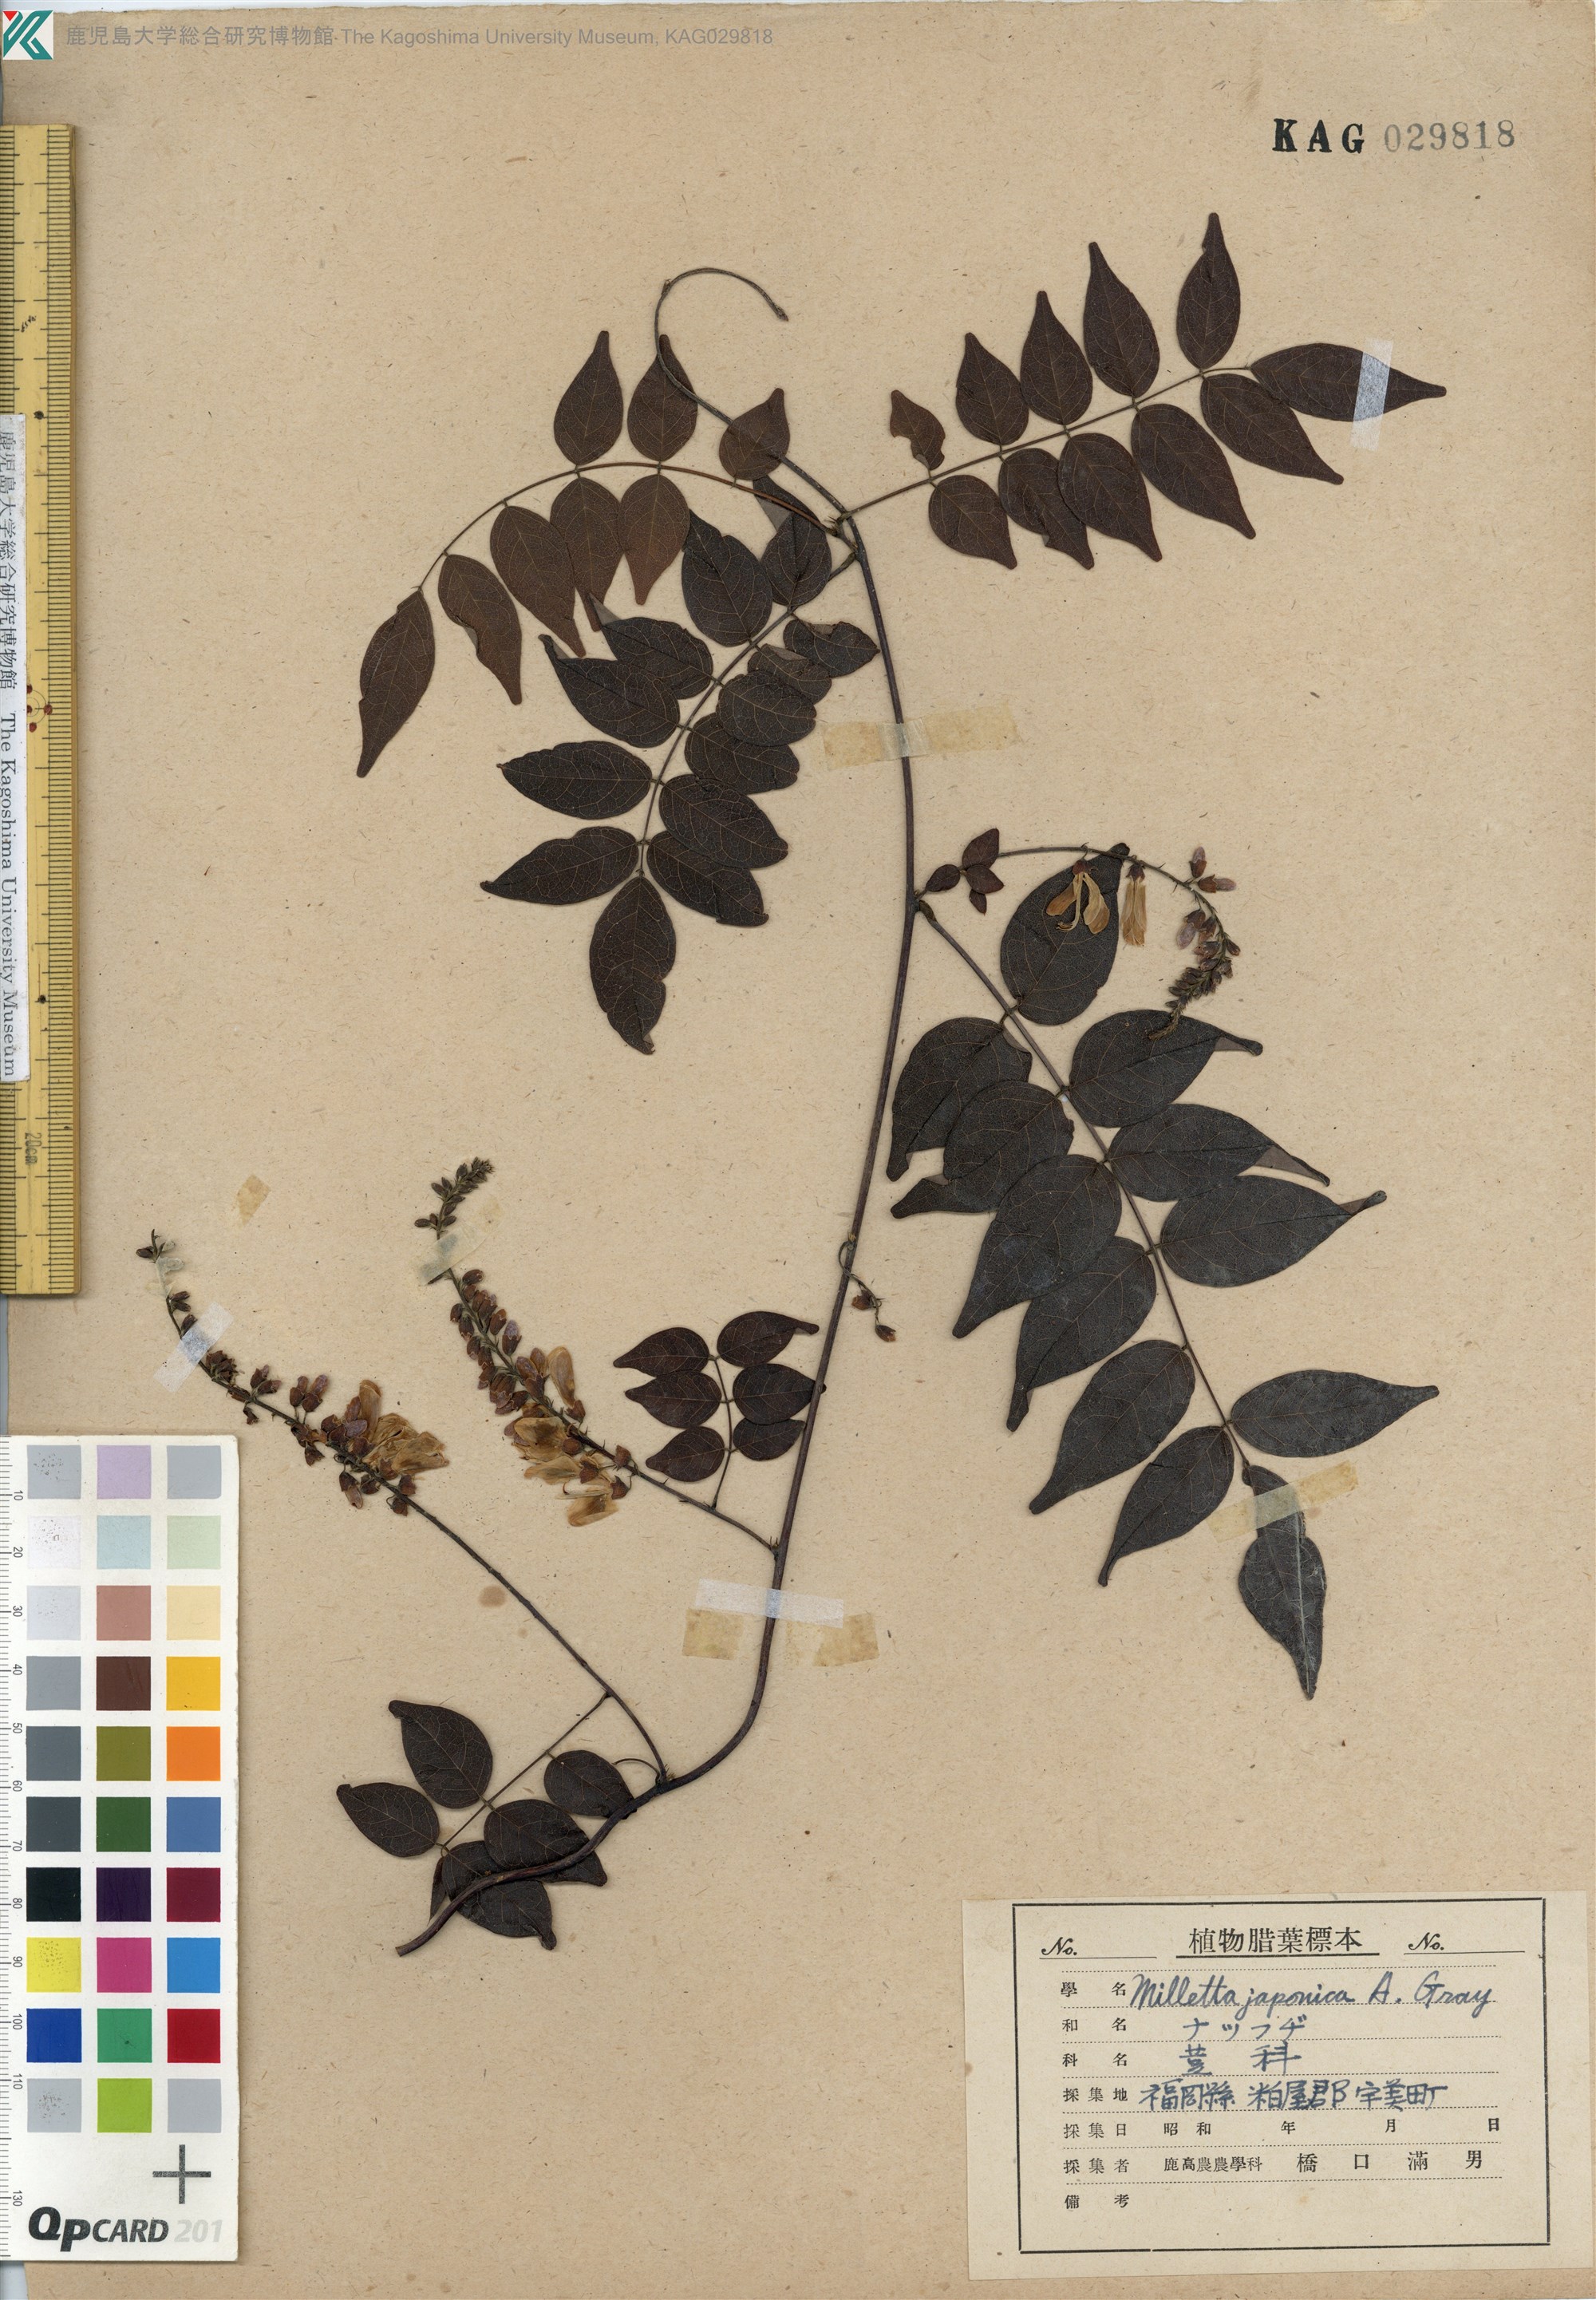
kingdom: Plantae
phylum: Tracheophyta
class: Magnoliopsida
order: Fabales
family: Fabaceae
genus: Wisteriopsis
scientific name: Wisteriopsis japonica
